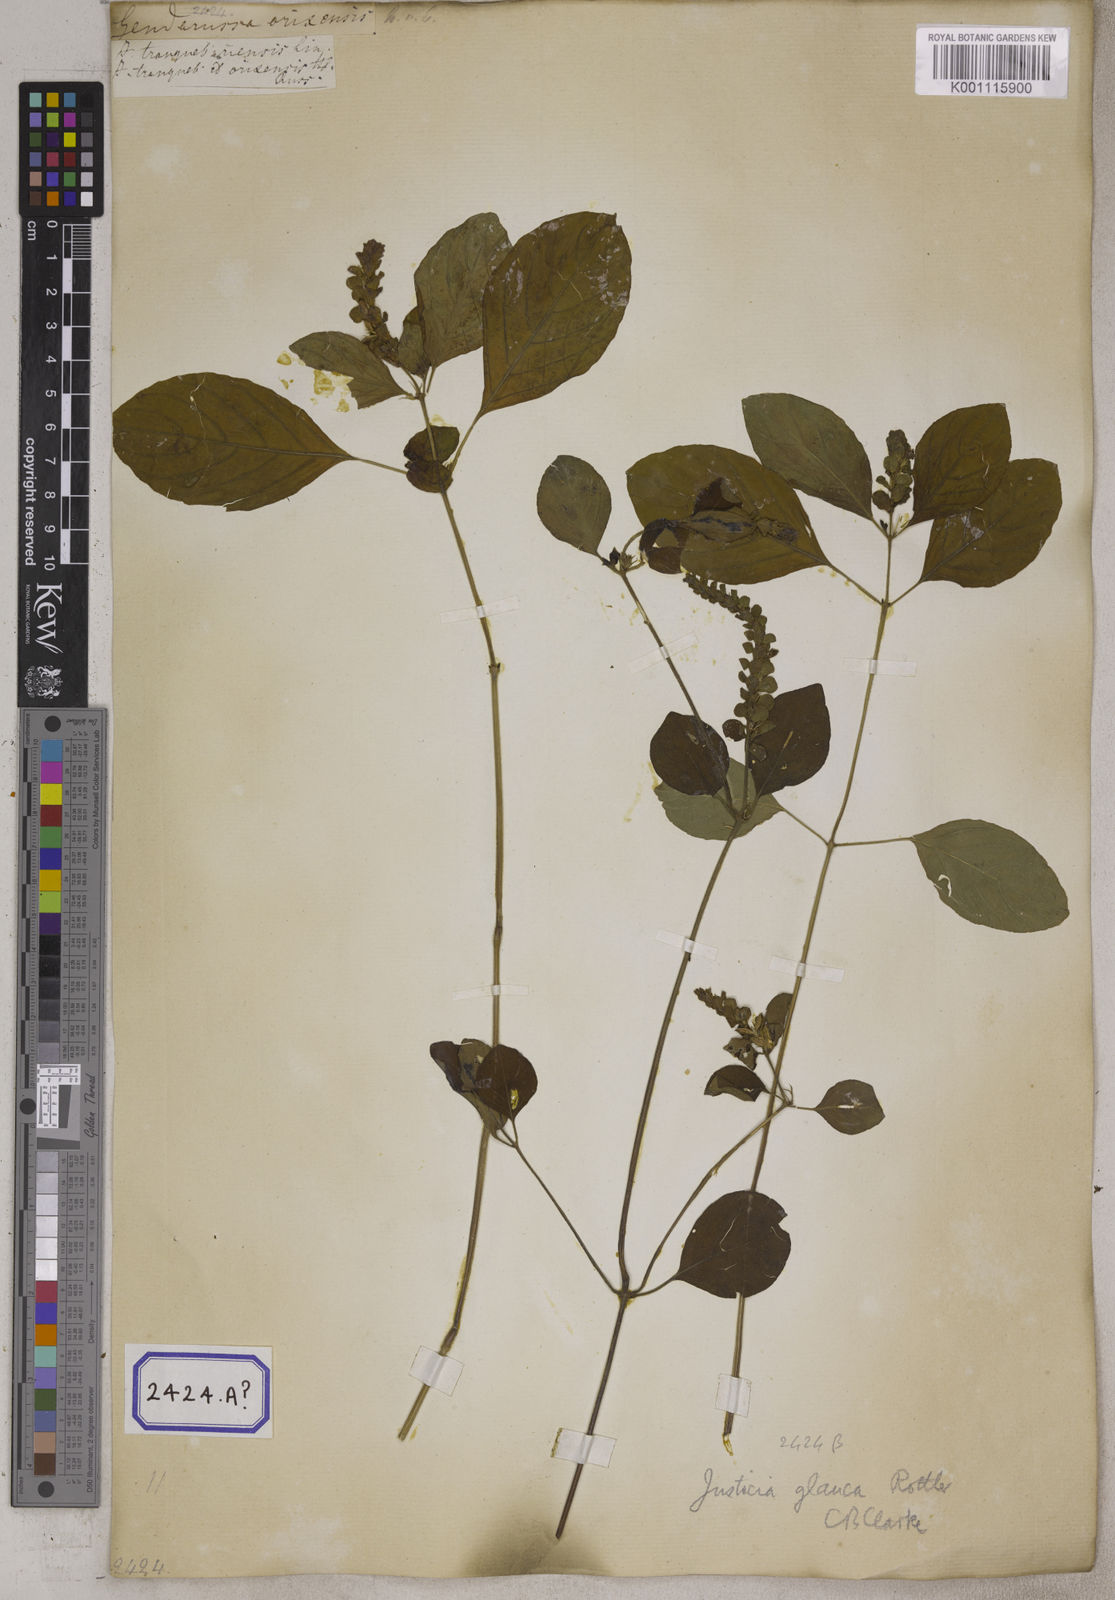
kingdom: Plantae
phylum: Tracheophyta
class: Magnoliopsida
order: Lamiales
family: Acanthaceae
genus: Justicia
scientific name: Justicia tranquebariensis
